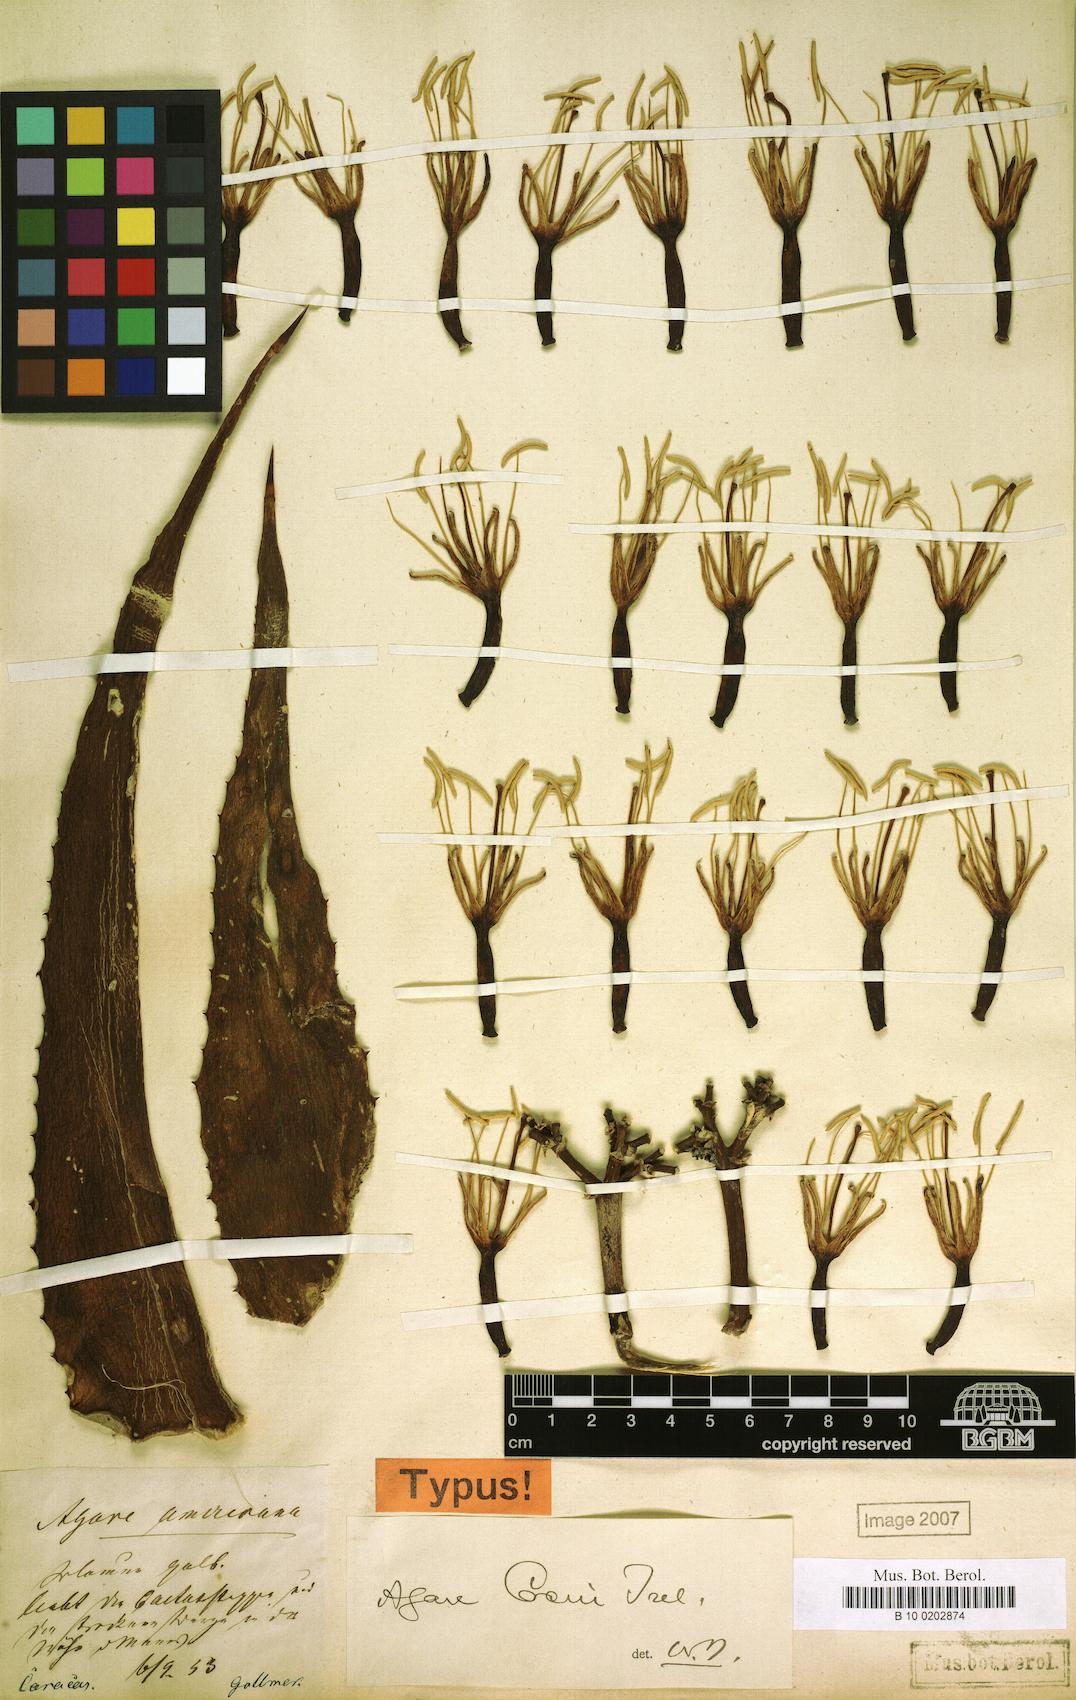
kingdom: Plantae
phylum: Tracheophyta
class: Liliopsida
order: Asparagales
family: Asparagaceae
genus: Agave
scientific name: Agave cocui
